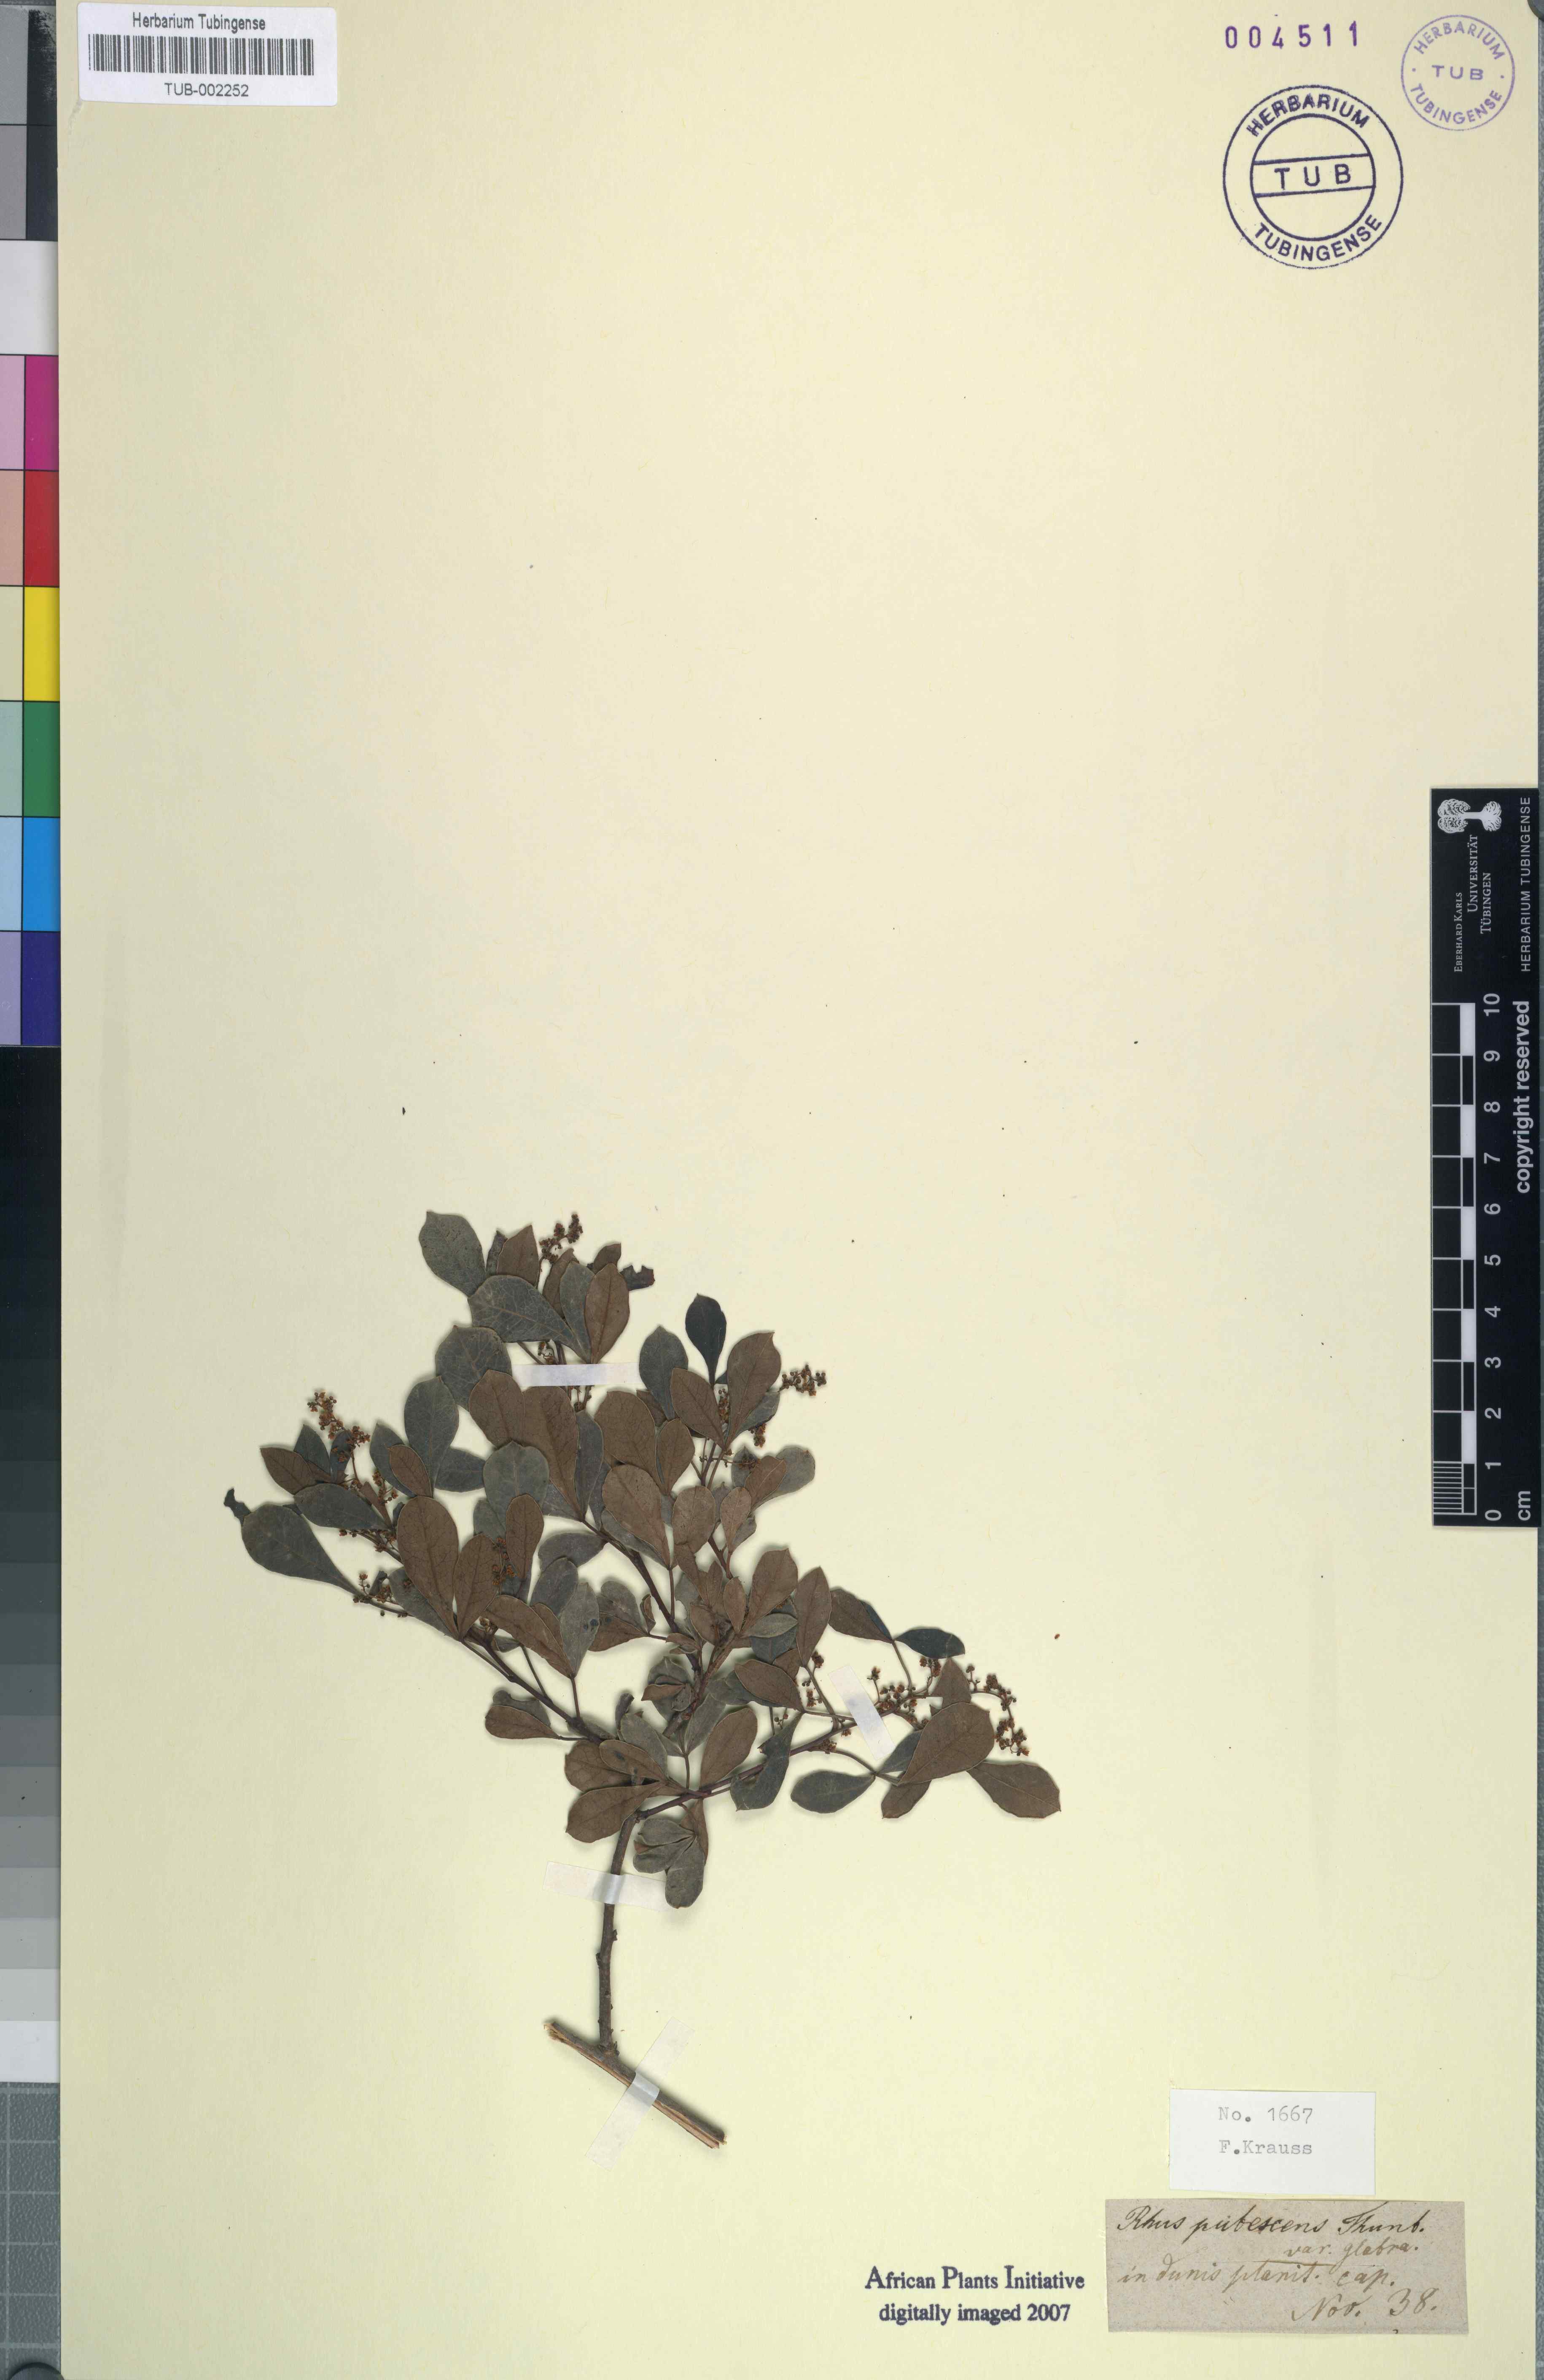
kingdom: Plantae
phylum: Tracheophyta
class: Magnoliopsida
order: Sapindales
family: Anacardiaceae
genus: Searsia
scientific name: Searsia laevigata
